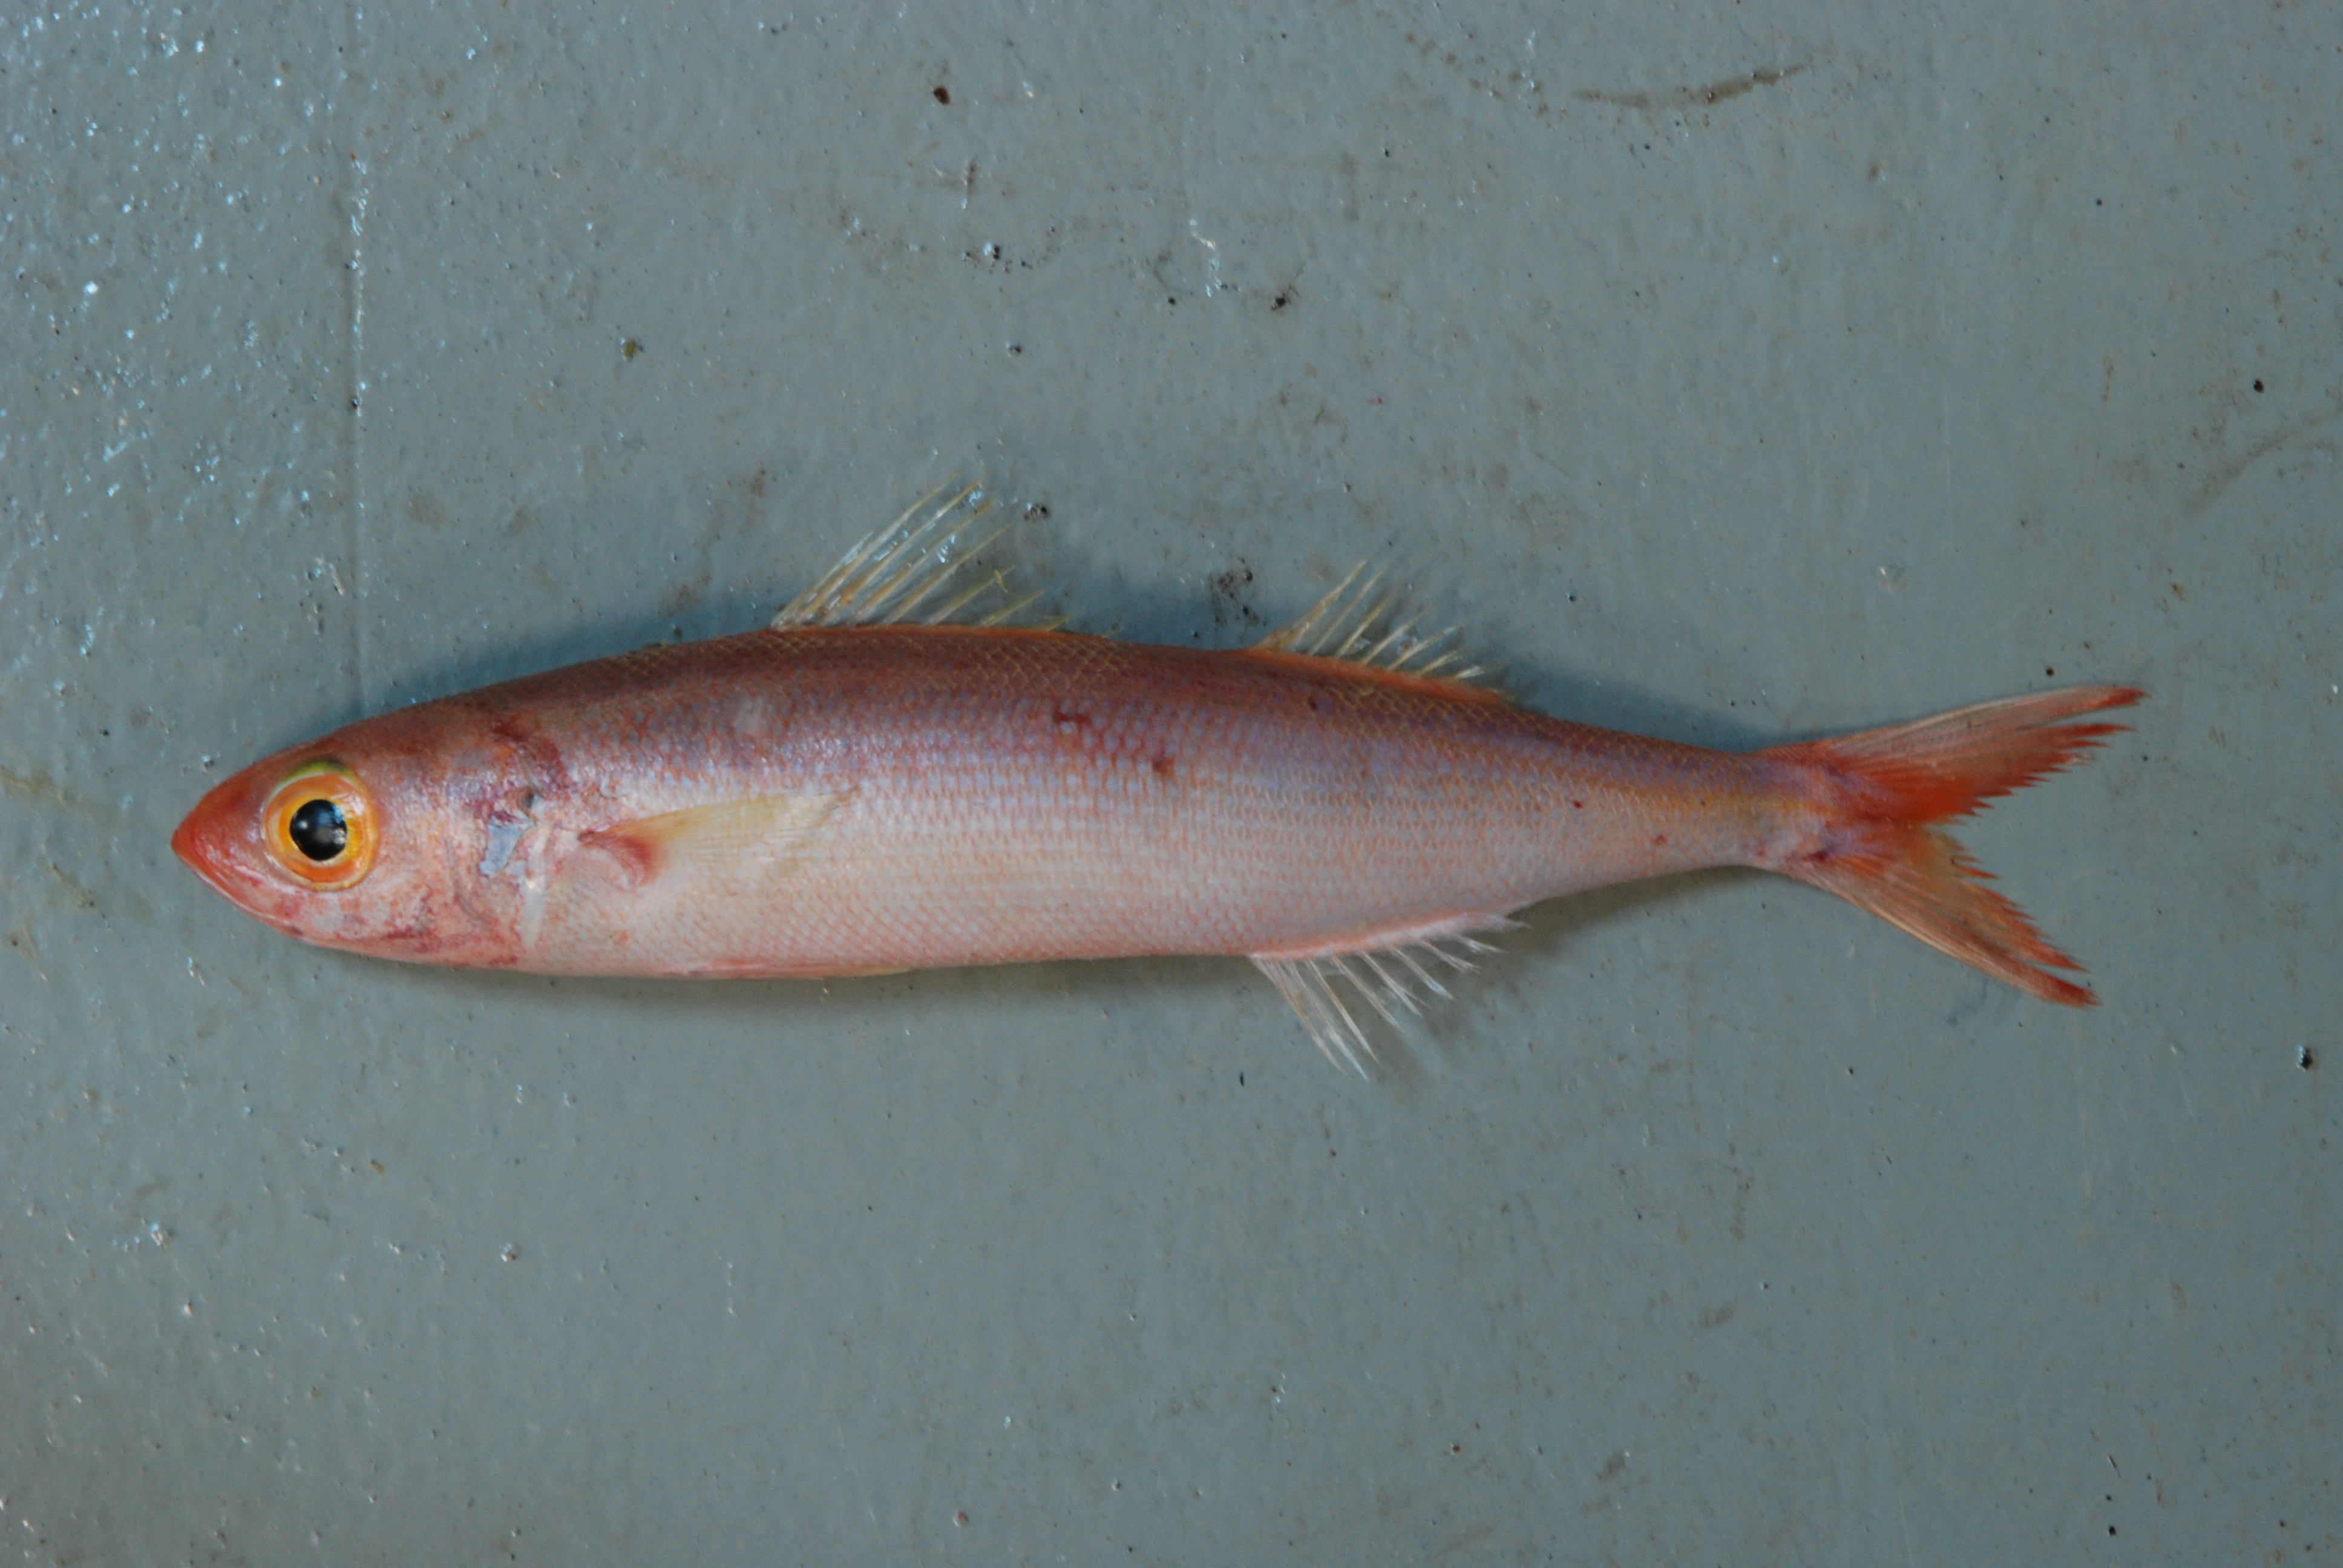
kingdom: Animalia
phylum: Chordata
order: Perciformes
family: Emmelichthyidae
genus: Emmelichthys
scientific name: Emmelichthys nitidus
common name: Cape bonnetmouth
